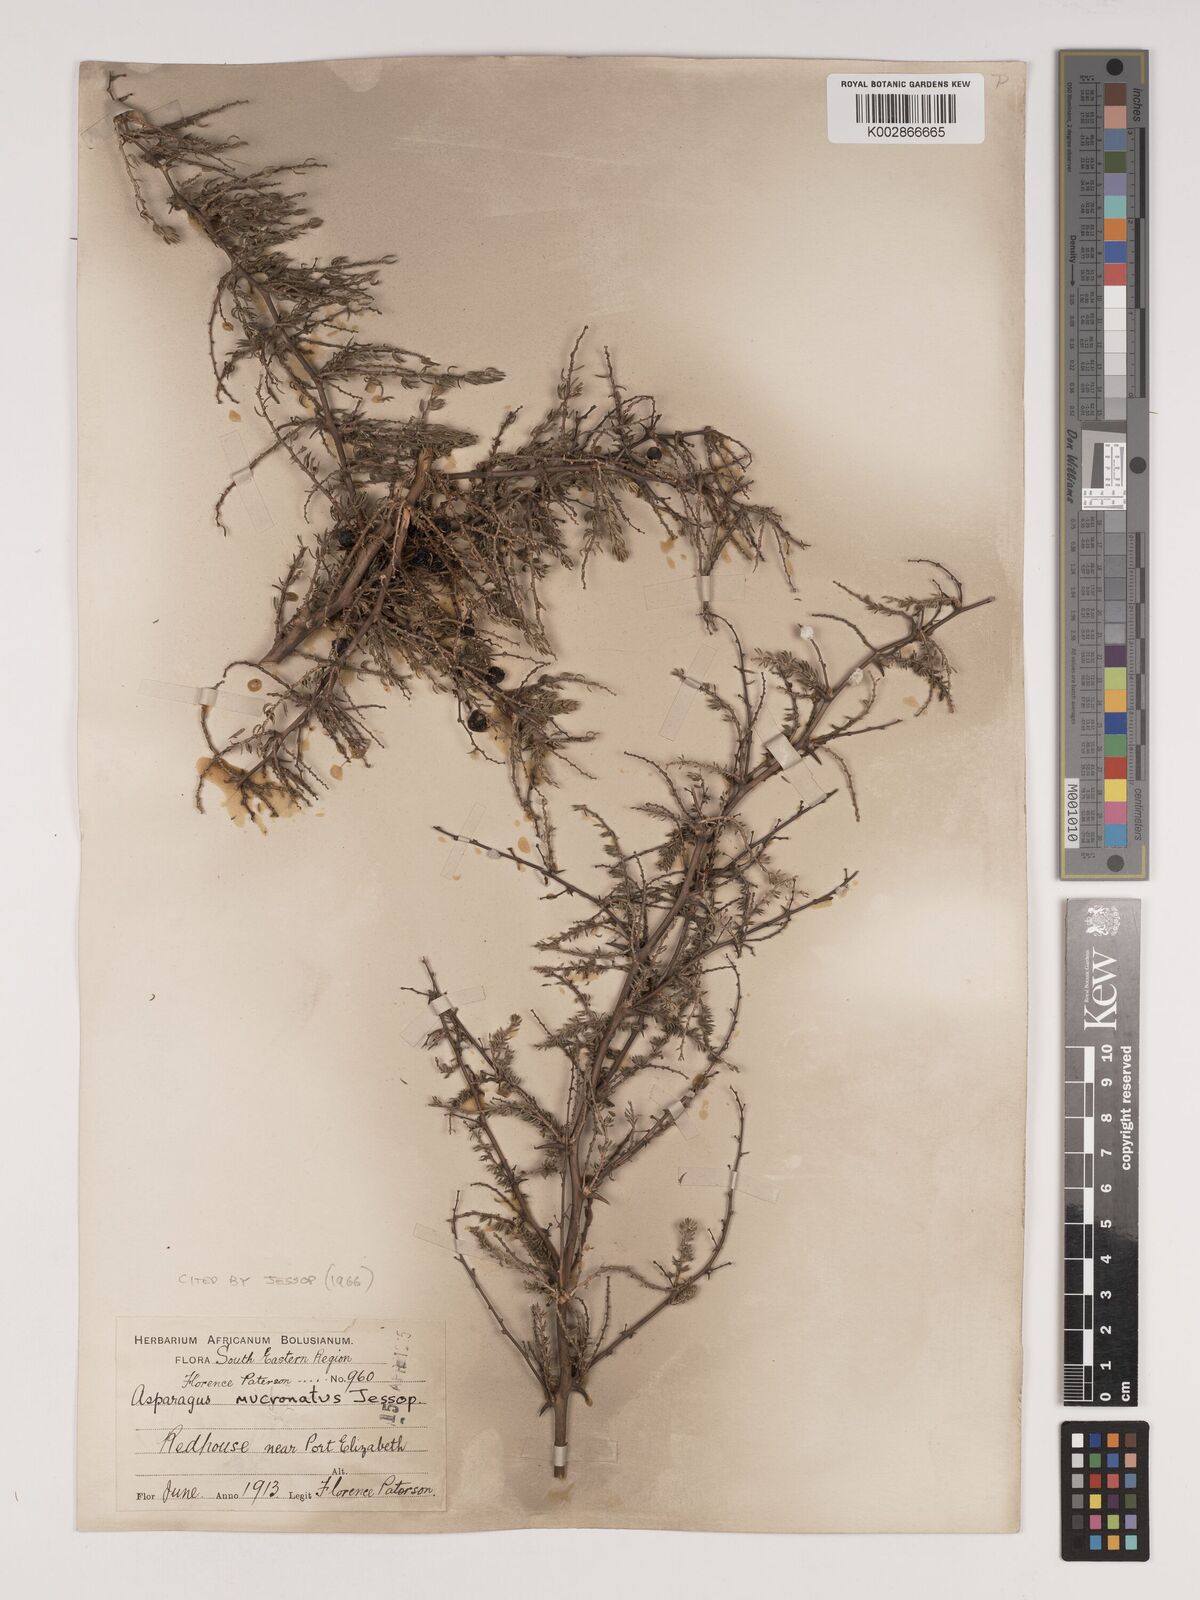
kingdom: Plantae
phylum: Tracheophyta
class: Liliopsida
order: Asparagales
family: Asparagaceae
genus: Asparagus
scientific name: Asparagus mucronatus
